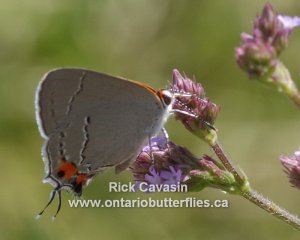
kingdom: Animalia
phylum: Arthropoda
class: Insecta
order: Lepidoptera
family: Lycaenidae
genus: Strymon
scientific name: Strymon melinus
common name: Gray Hairstreak
